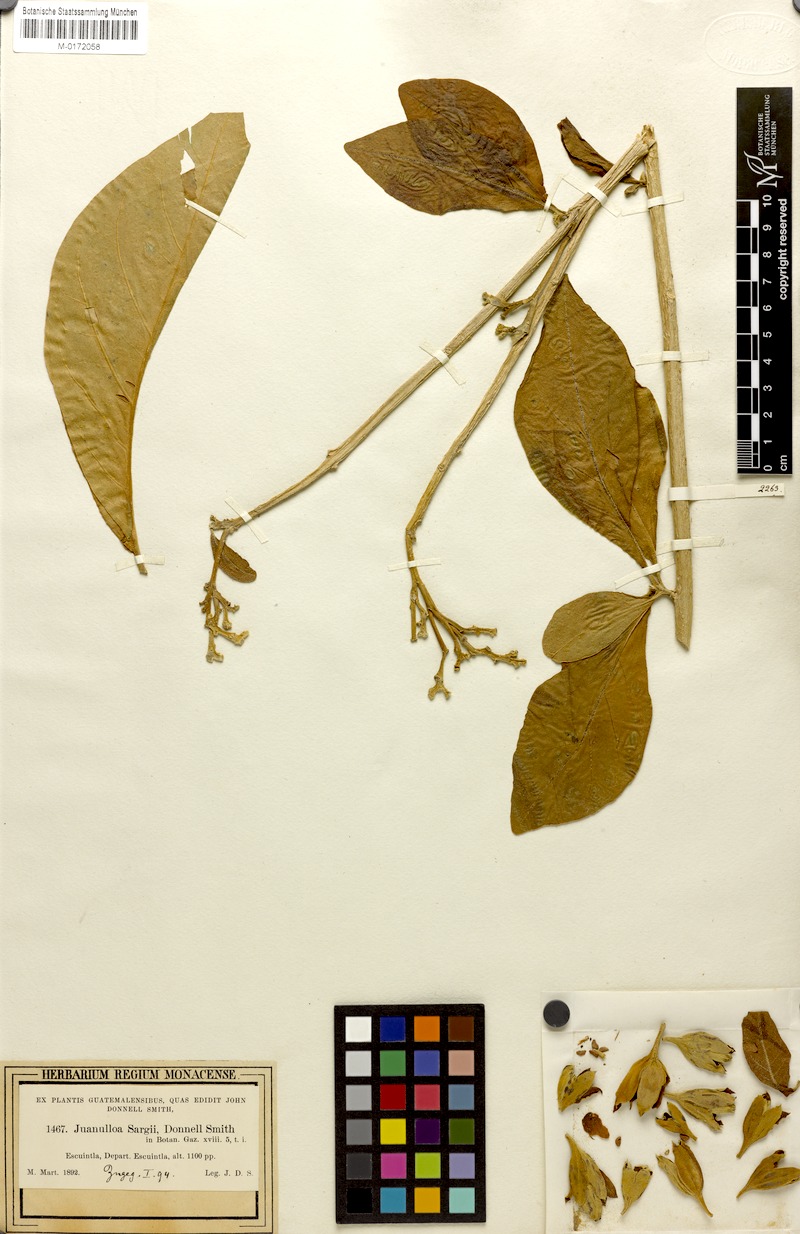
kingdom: Plantae
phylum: Tracheophyta
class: Magnoliopsida
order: Solanales
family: Solanaceae
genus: Juanulloa
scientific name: Juanulloa mexicana
